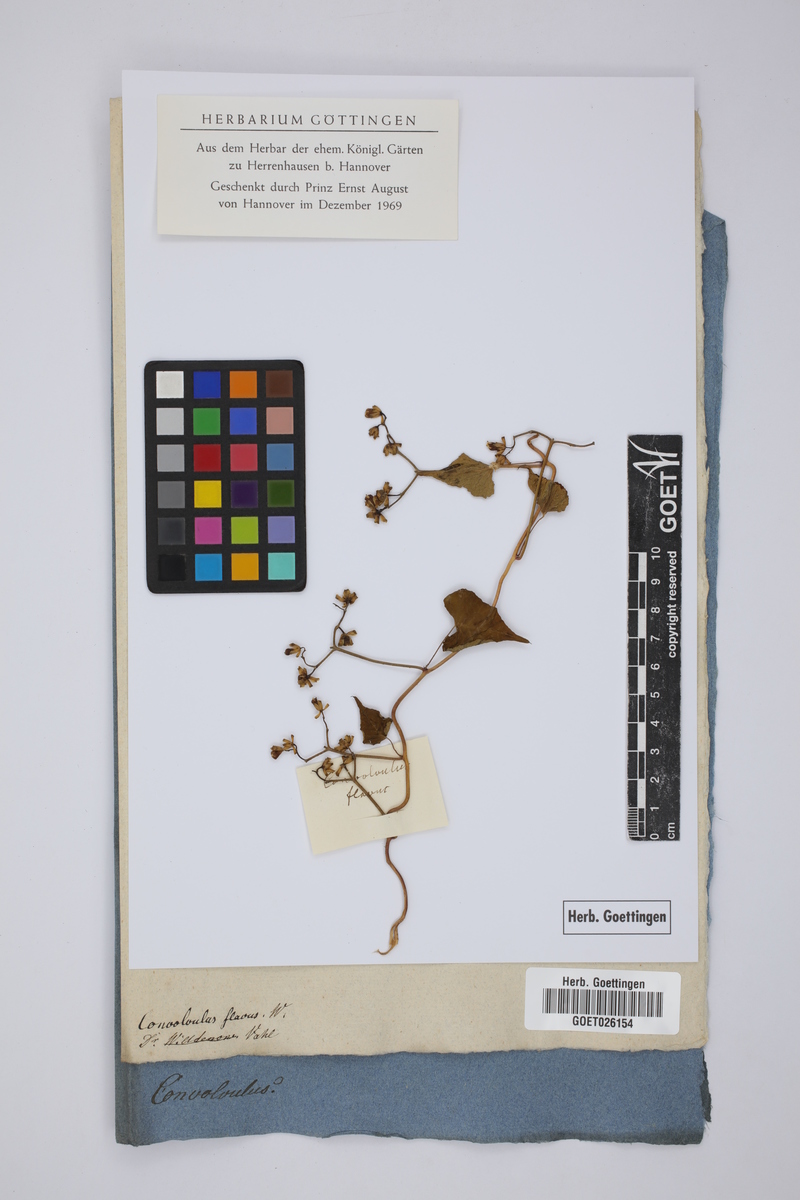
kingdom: Plantae
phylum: Tracheophyta
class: Magnoliopsida
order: Solanales
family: Convolvulaceae
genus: Merremia
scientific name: Merremia hederacea
